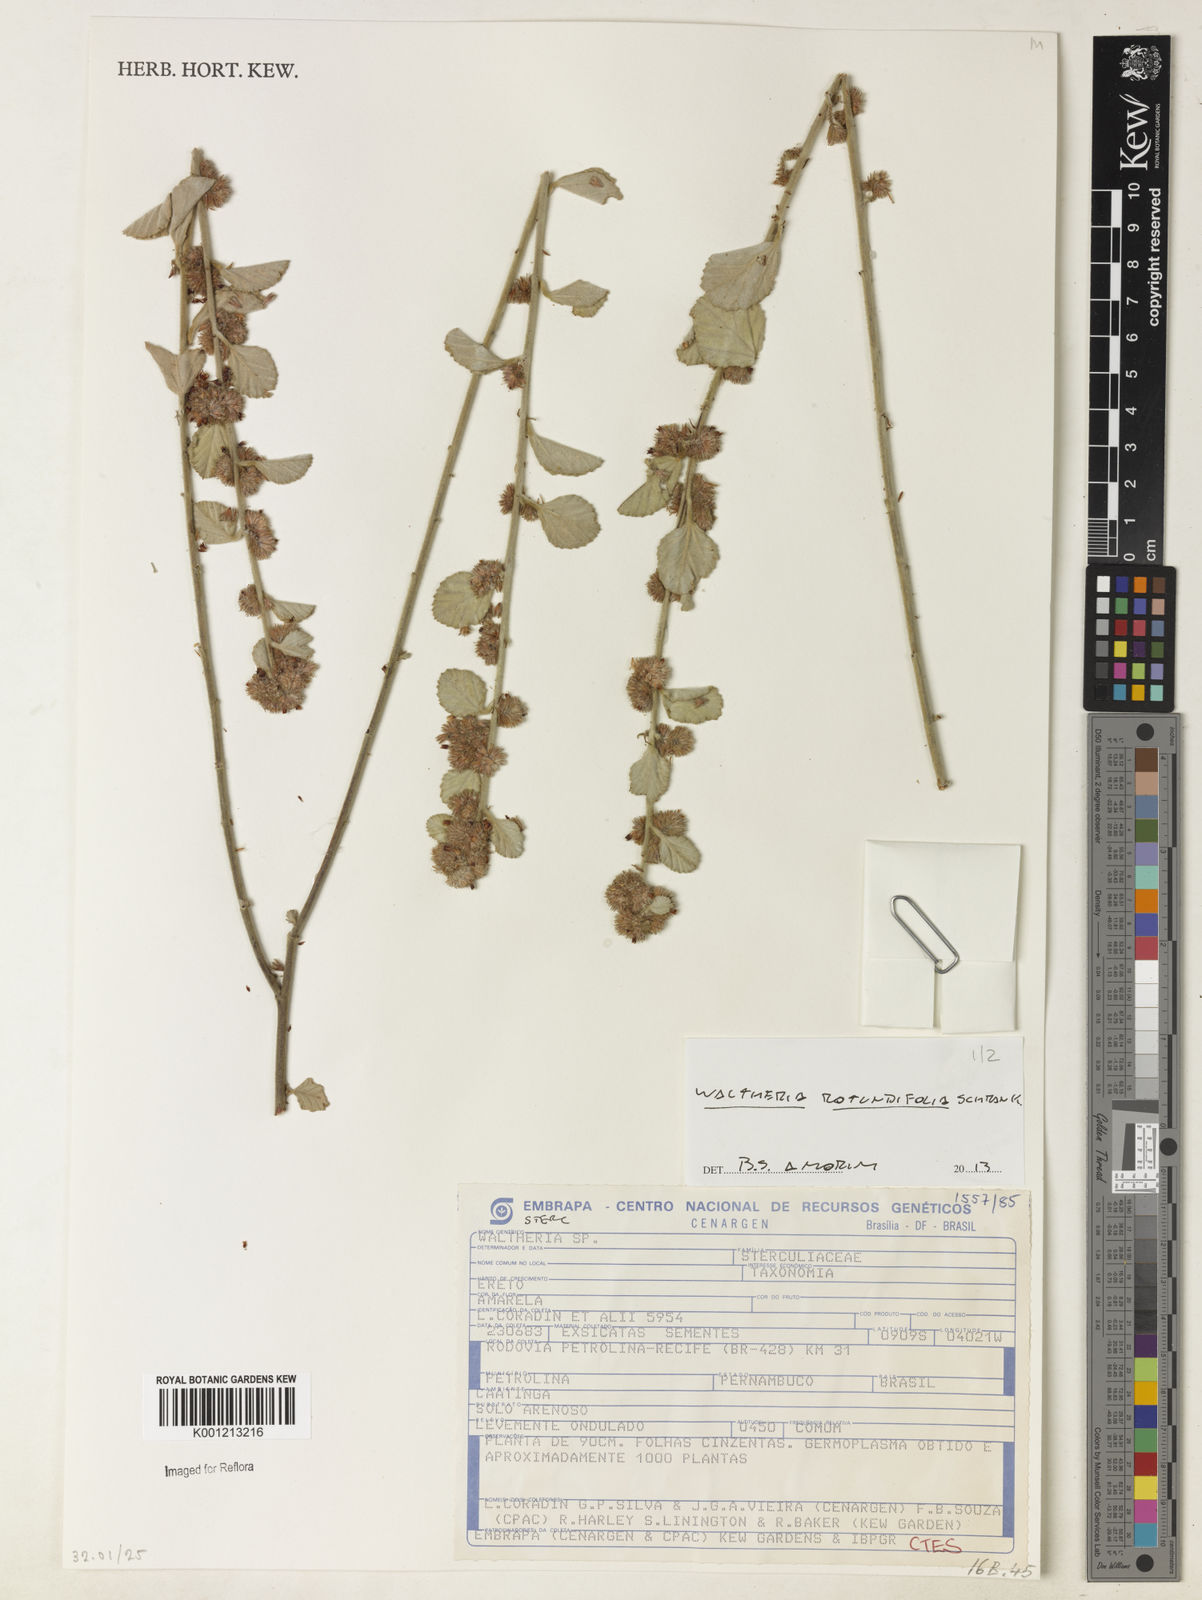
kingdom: Plantae
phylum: Tracheophyta
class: Magnoliopsida
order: Malvales
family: Malvaceae
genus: Waltheria
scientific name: Waltheria rotundifolia
